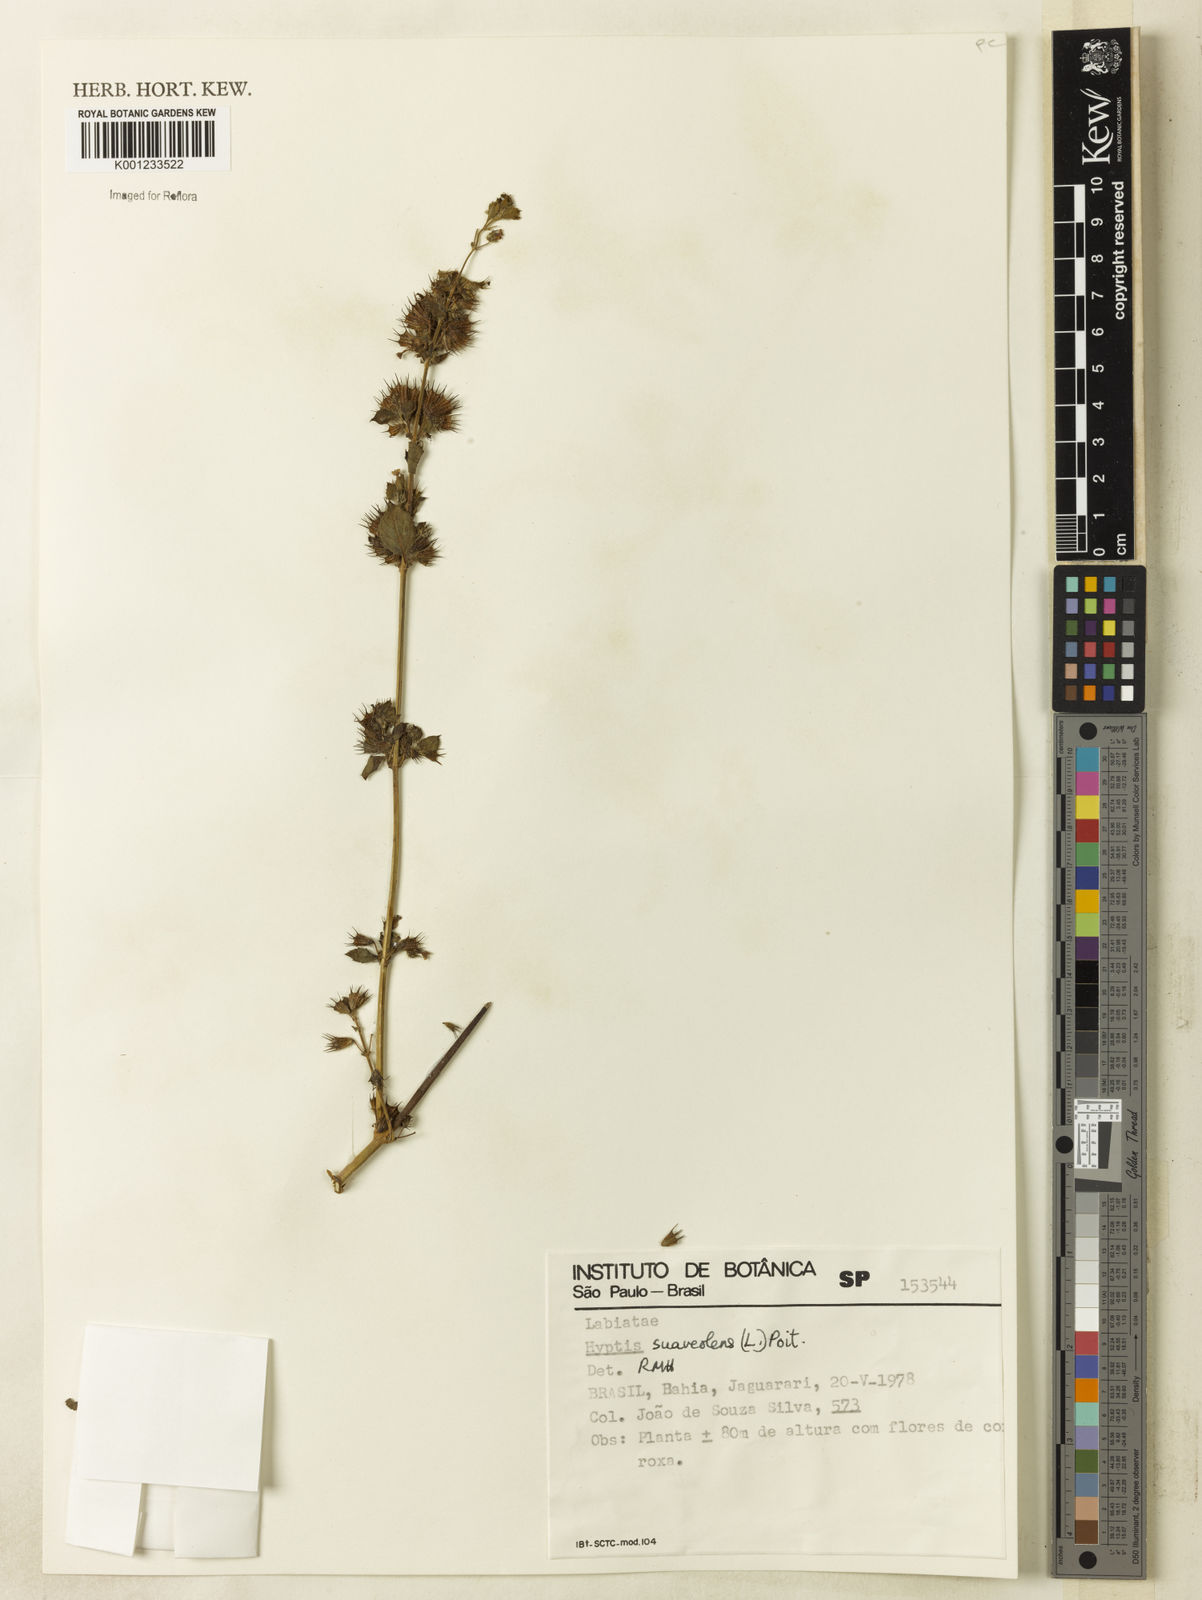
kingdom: Plantae
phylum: Tracheophyta
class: Magnoliopsida
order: Lamiales
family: Lamiaceae
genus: Mesosphaerum
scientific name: Mesosphaerum suaveolens
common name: Pignut
